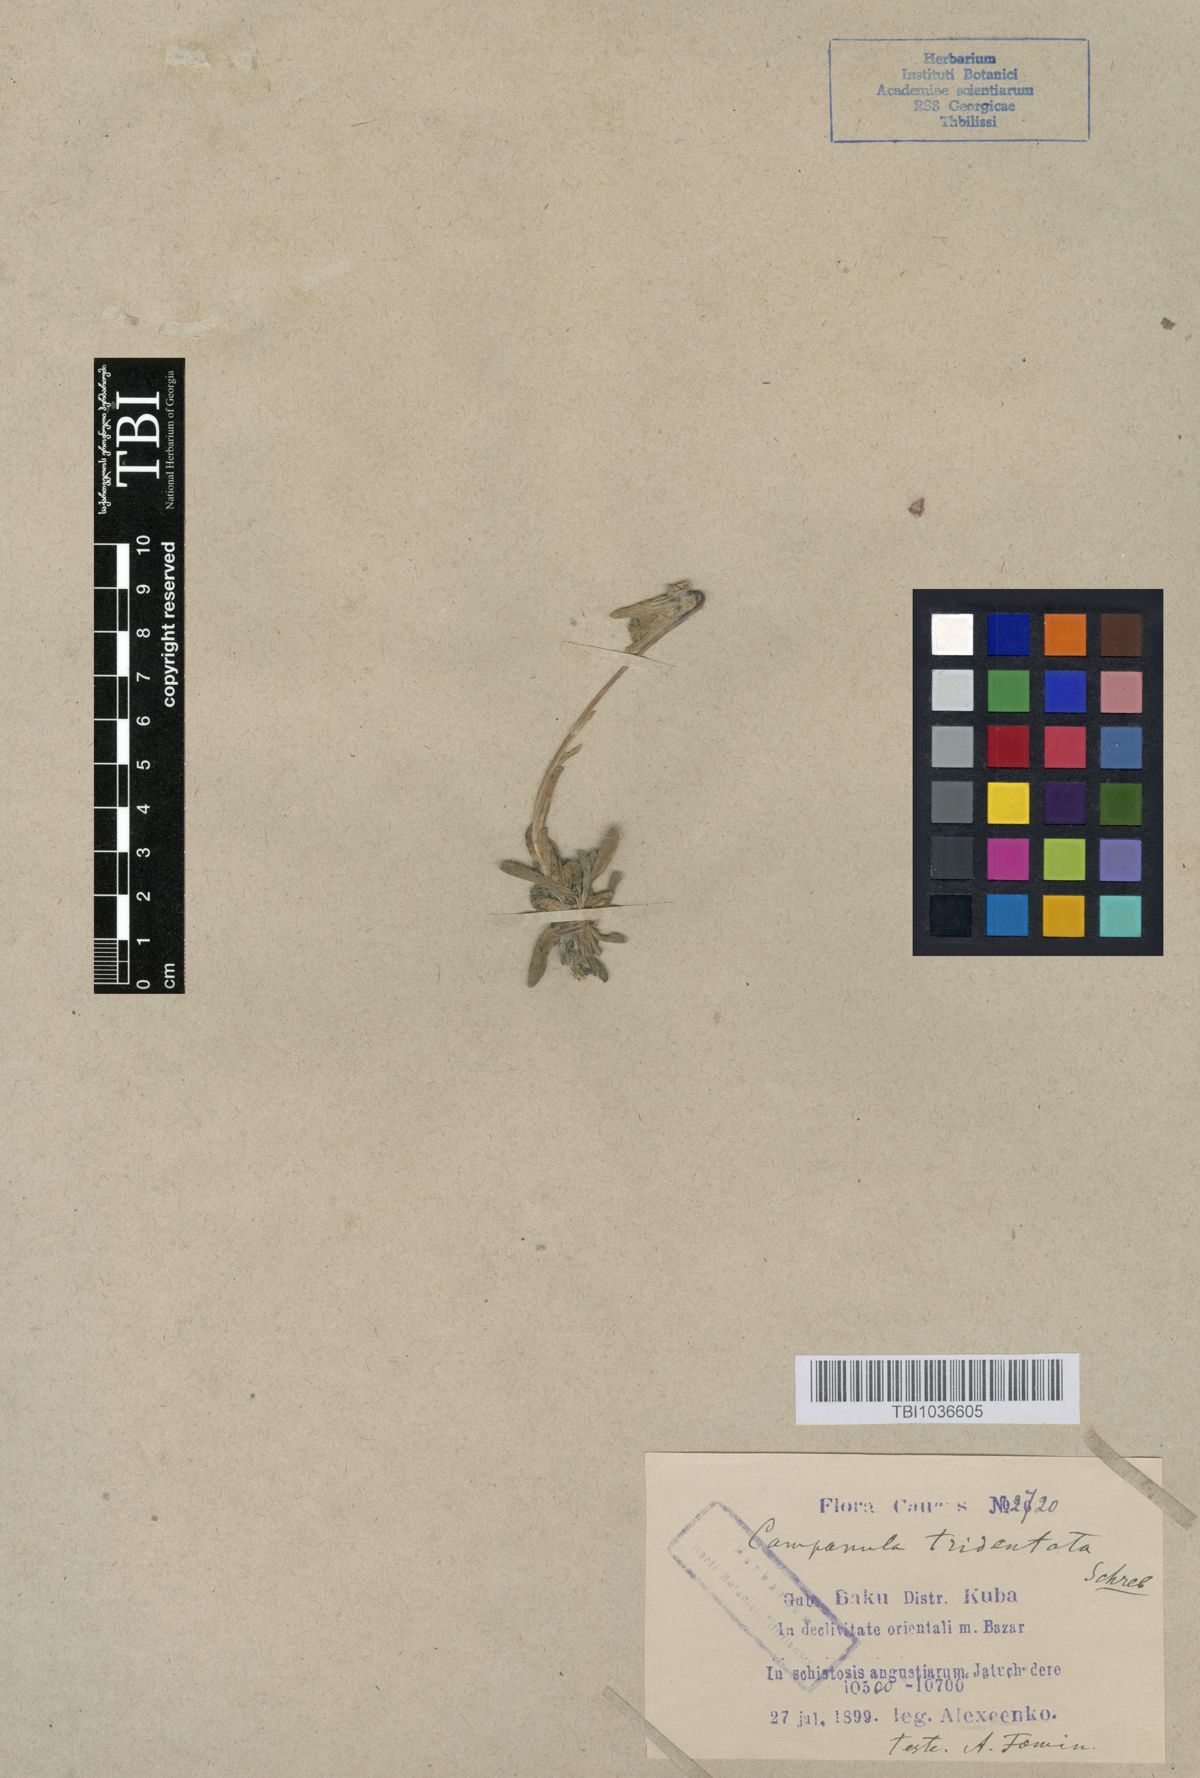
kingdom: Plantae
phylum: Tracheophyta
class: Magnoliopsida
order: Asterales
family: Campanulaceae
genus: Campanula
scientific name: Campanula tridentata
